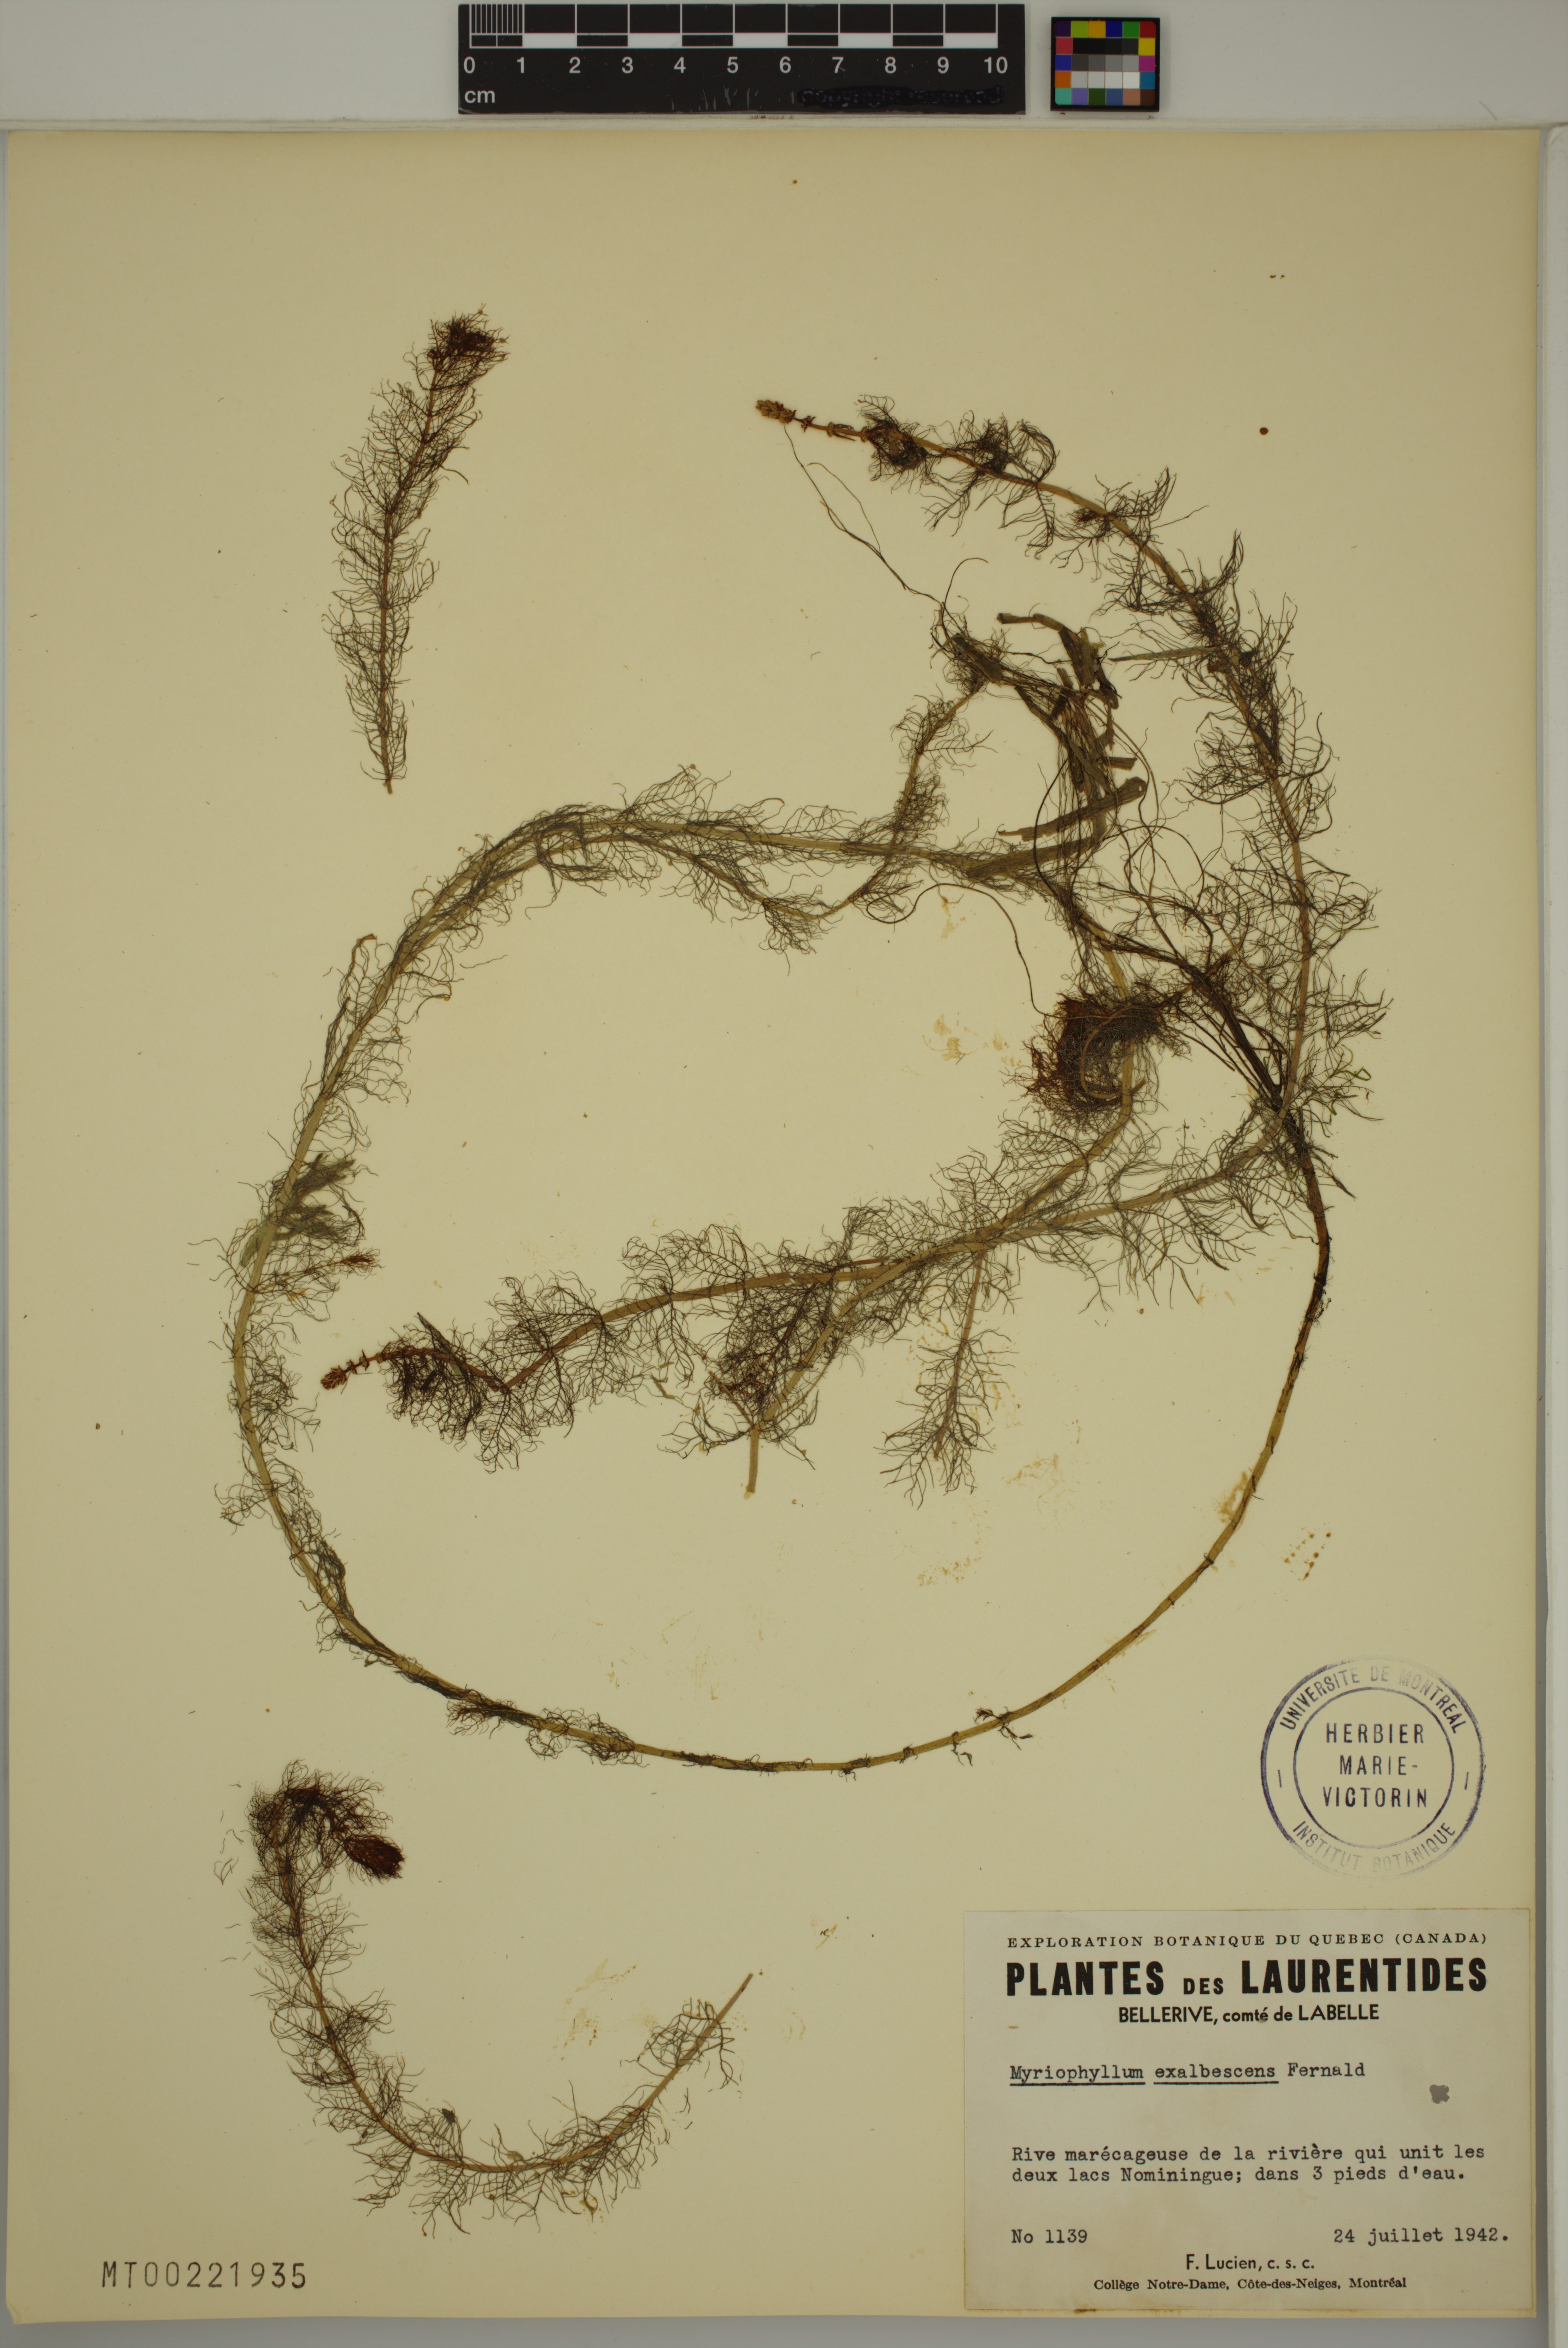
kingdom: Plantae
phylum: Tracheophyta
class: Magnoliopsida
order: Saxifragales
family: Haloragaceae
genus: Myriophyllum
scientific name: Myriophyllum sibiricum
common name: Siberian water-milfoil
